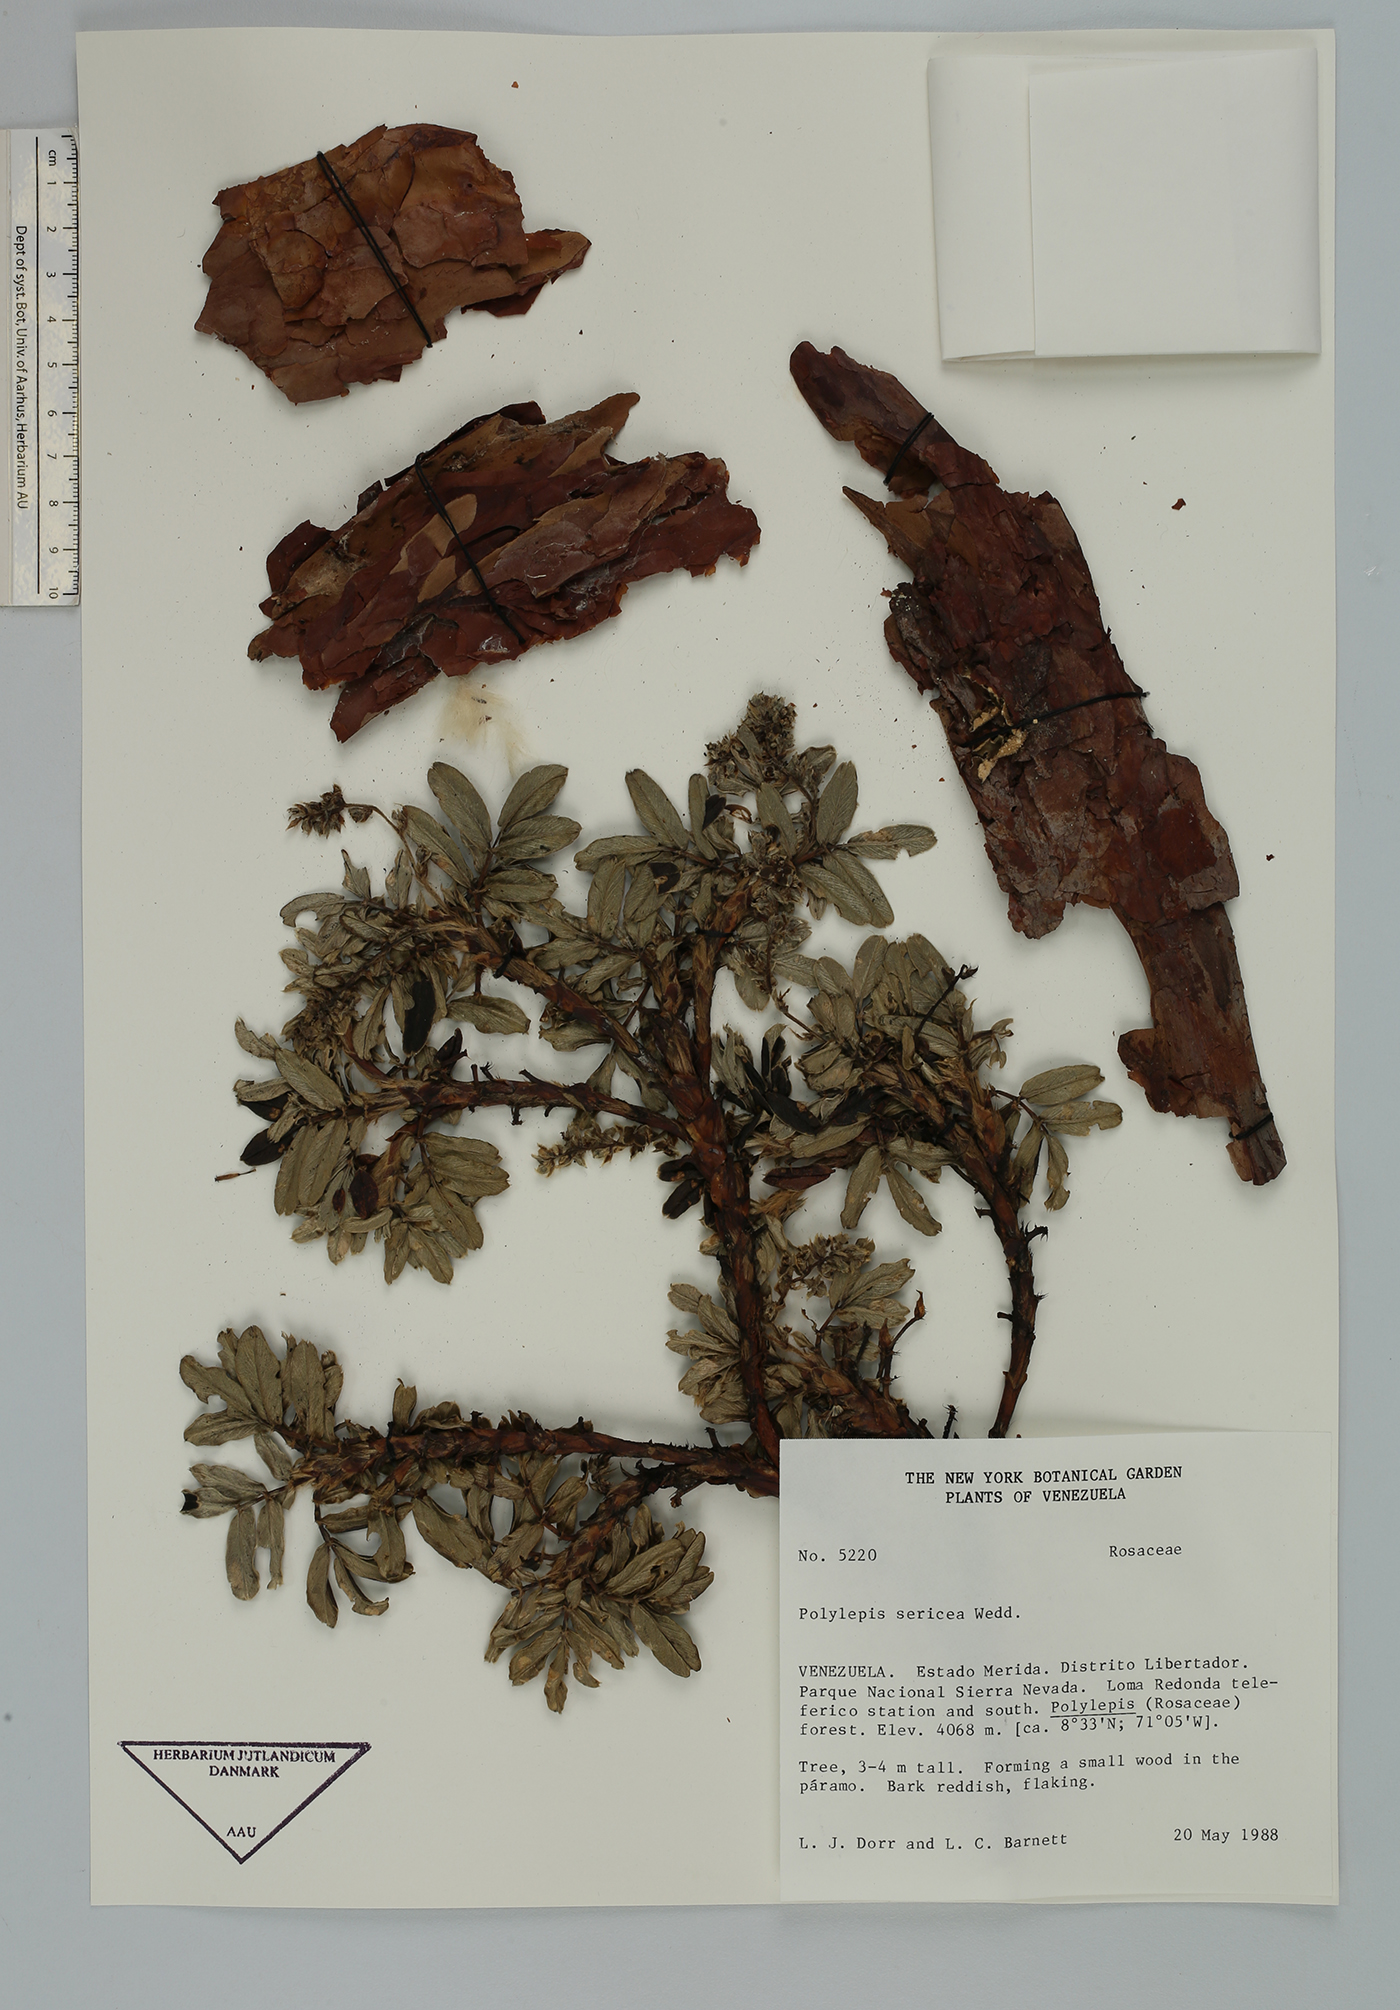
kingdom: Plantae
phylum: Tracheophyta
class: Magnoliopsida
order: Rosales
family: Rosaceae
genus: Polylepis
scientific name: Polylepis sericea
